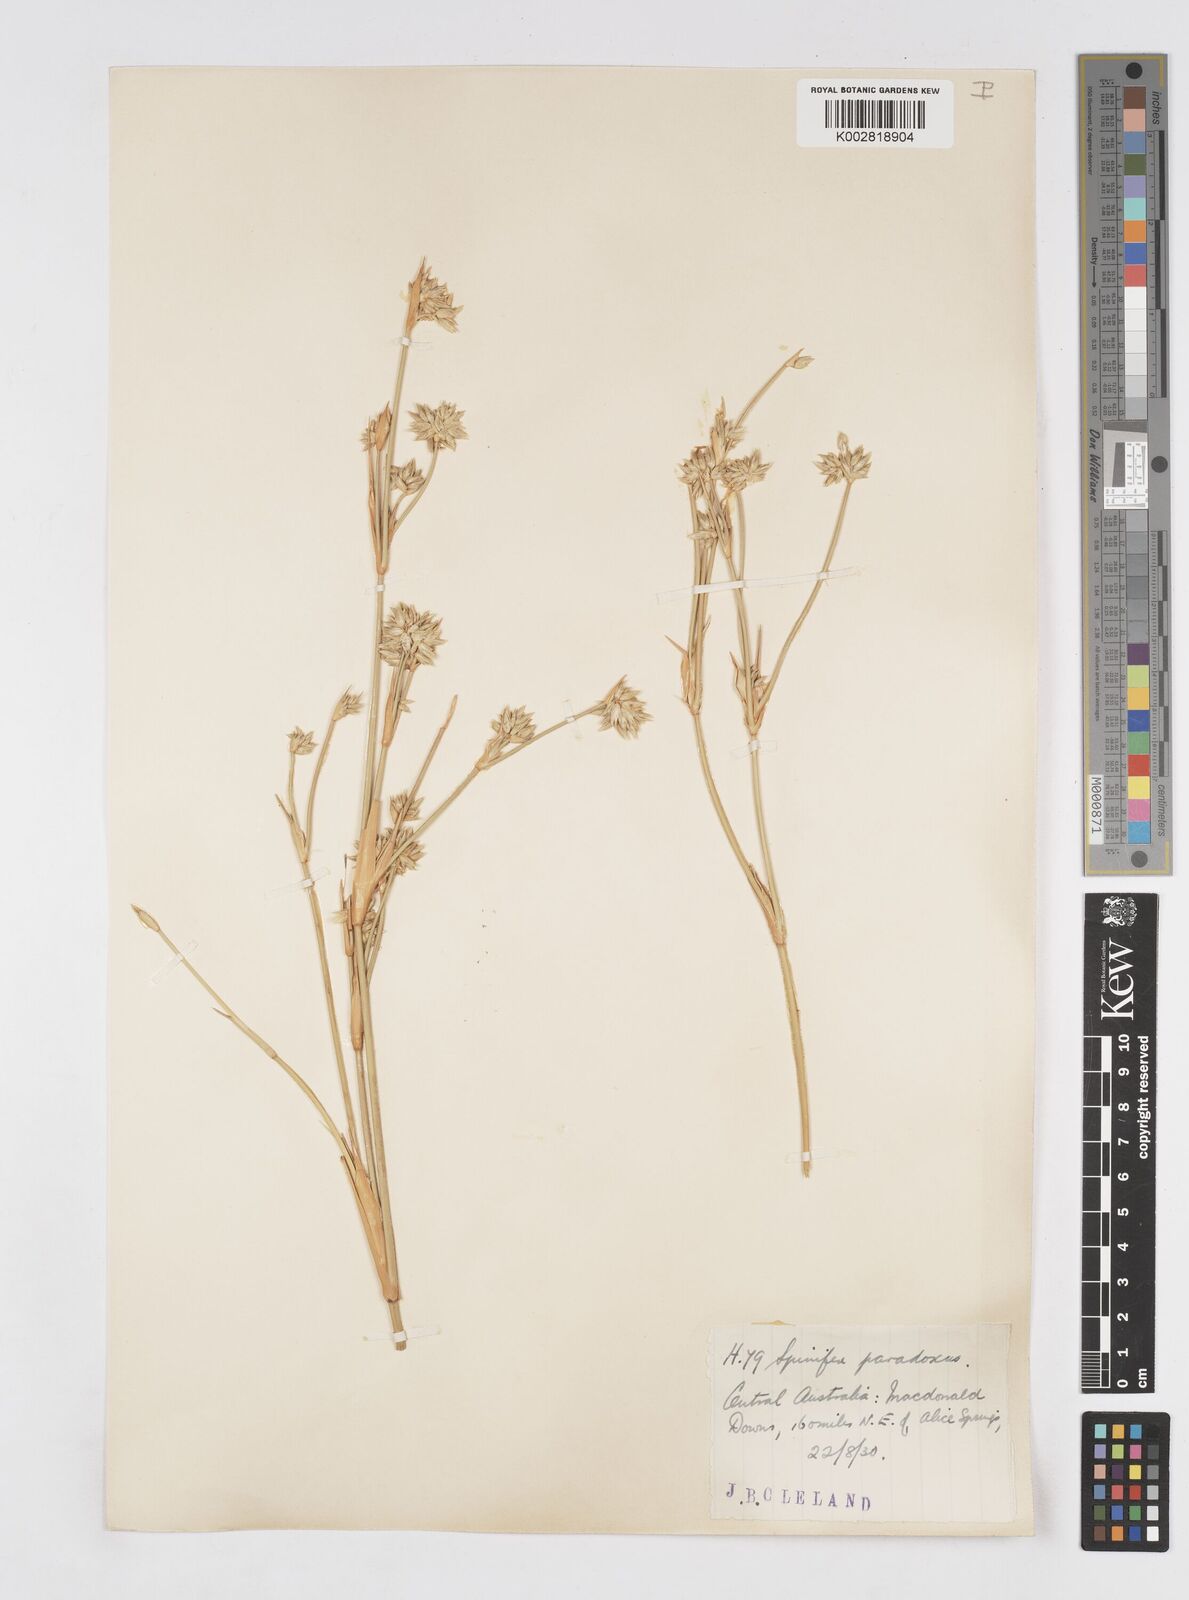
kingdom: Plantae
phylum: Tracheophyta
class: Liliopsida
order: Poales
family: Poaceae
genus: Zygochloa
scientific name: Zygochloa paradoxa
